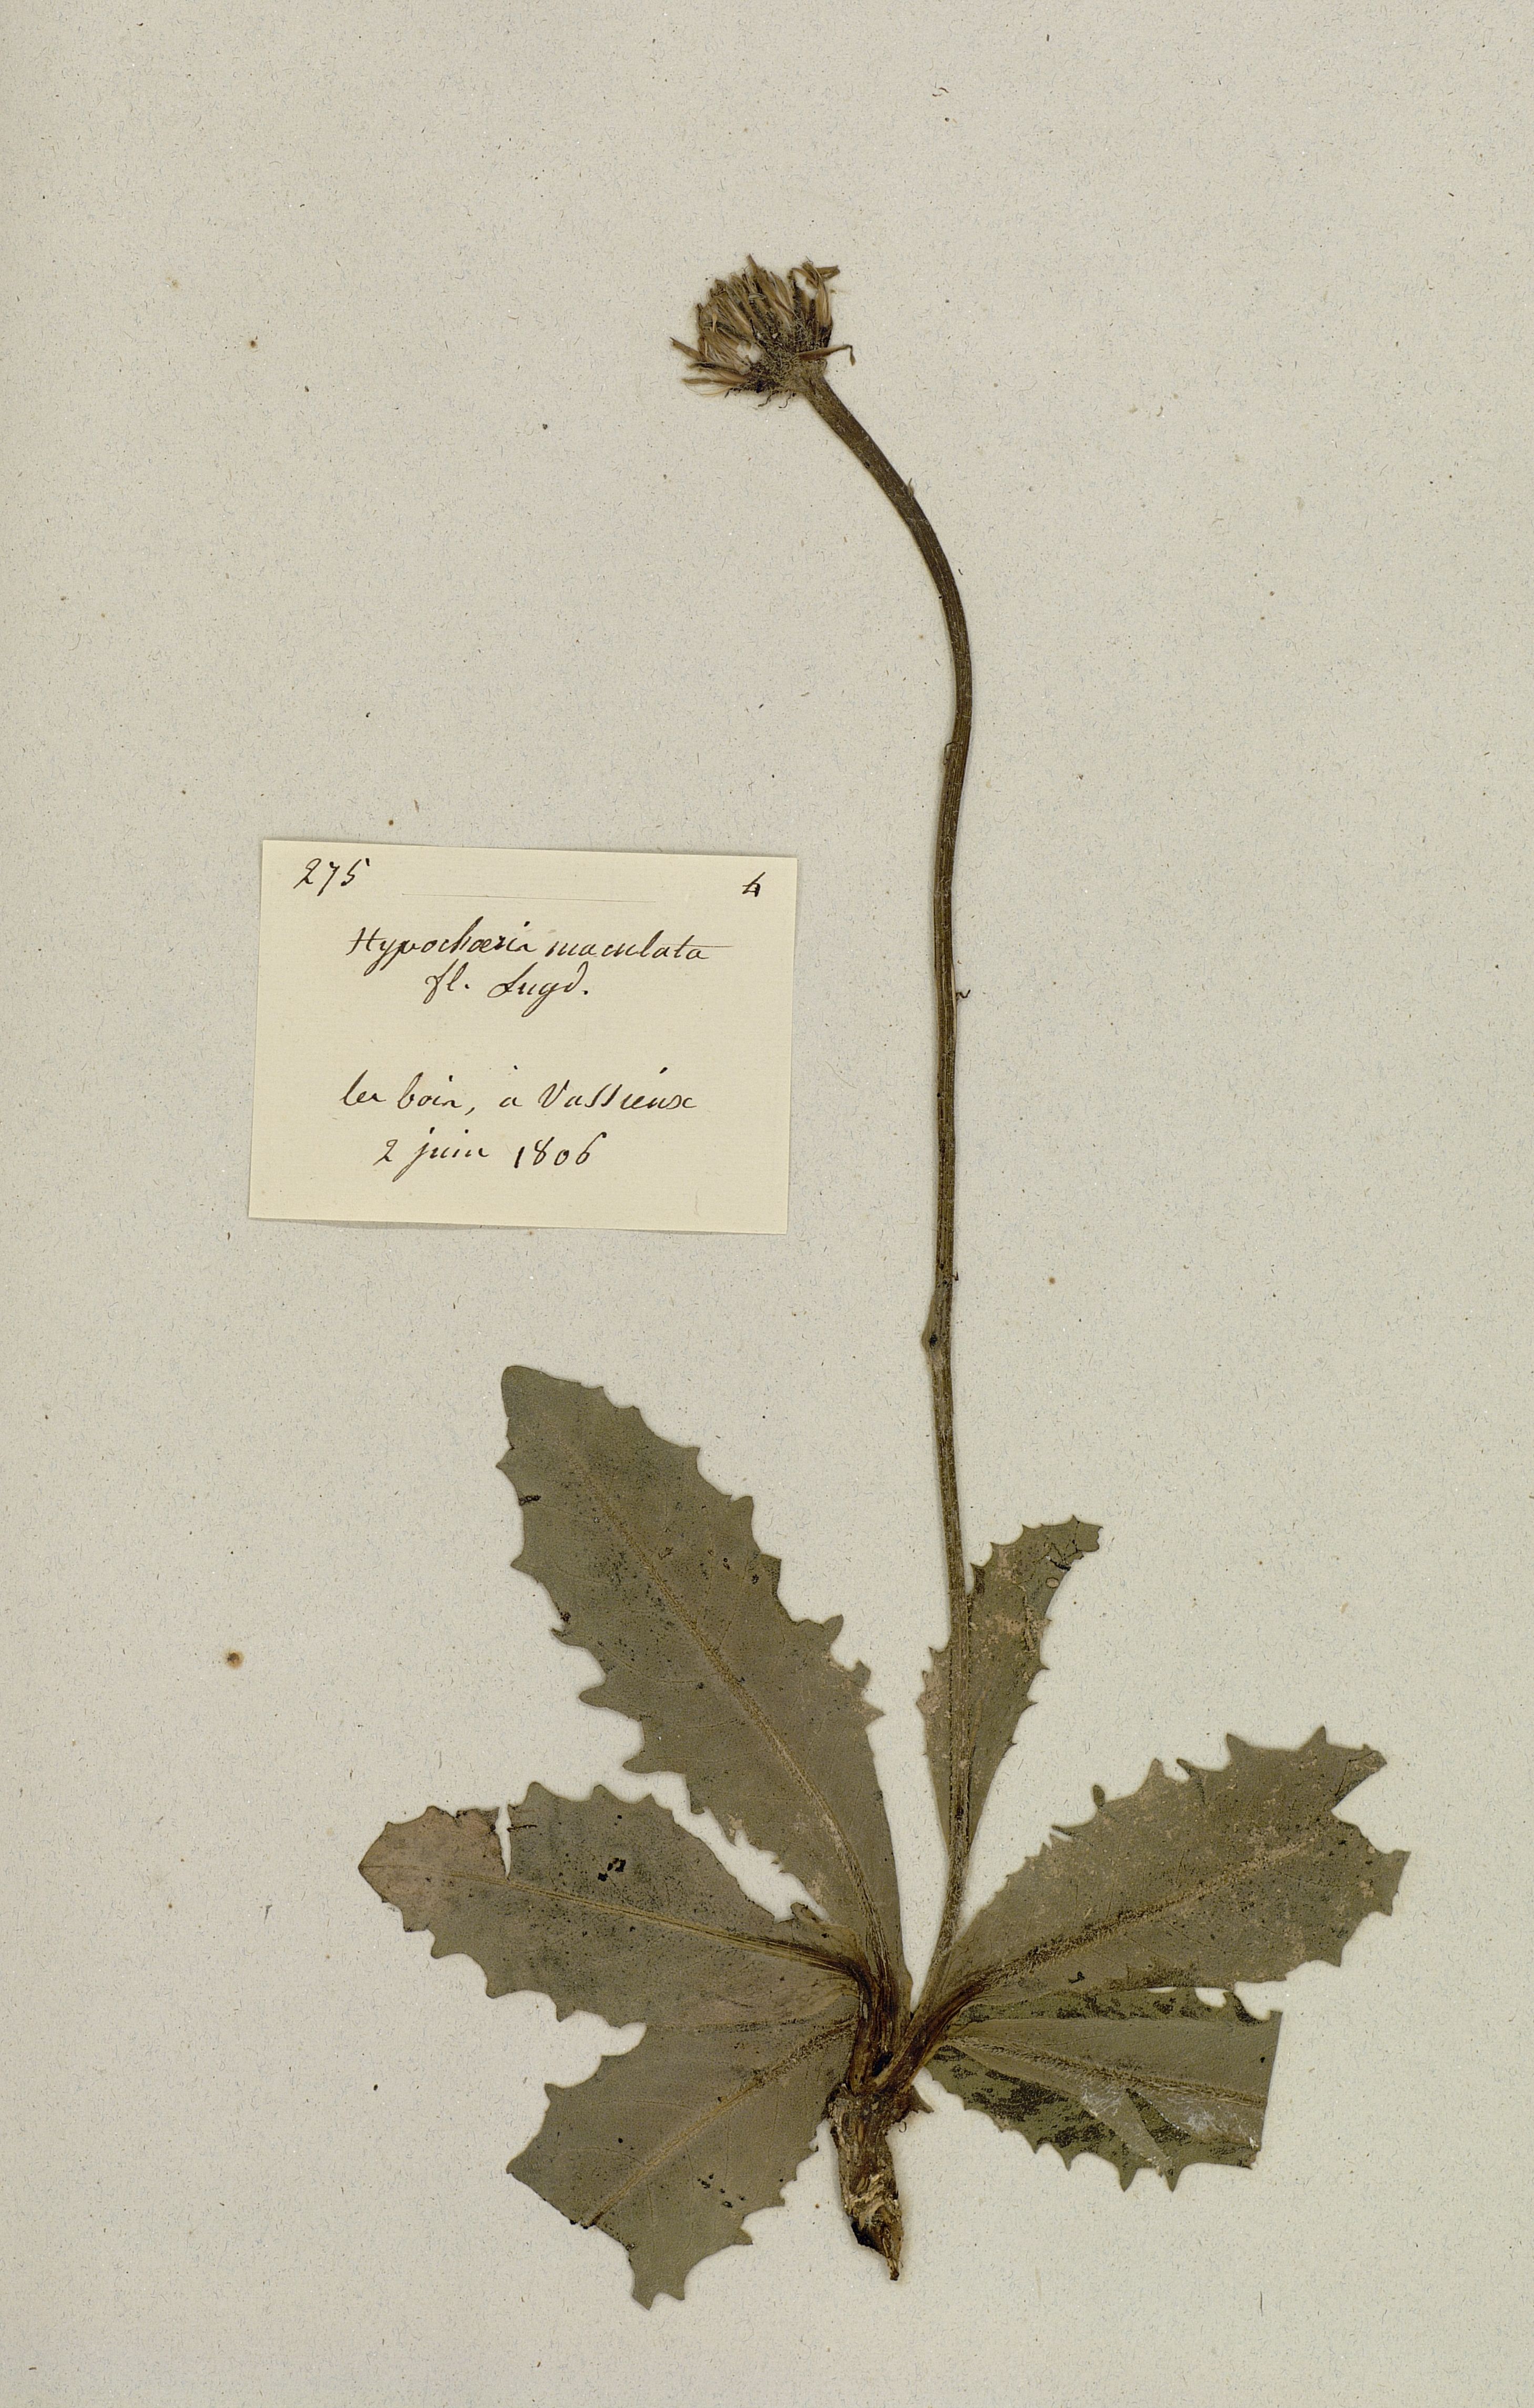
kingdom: Plantae
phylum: Tracheophyta
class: Magnoliopsida
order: Asterales
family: Asteraceae
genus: Trommsdorffia
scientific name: Trommsdorffia maculata
